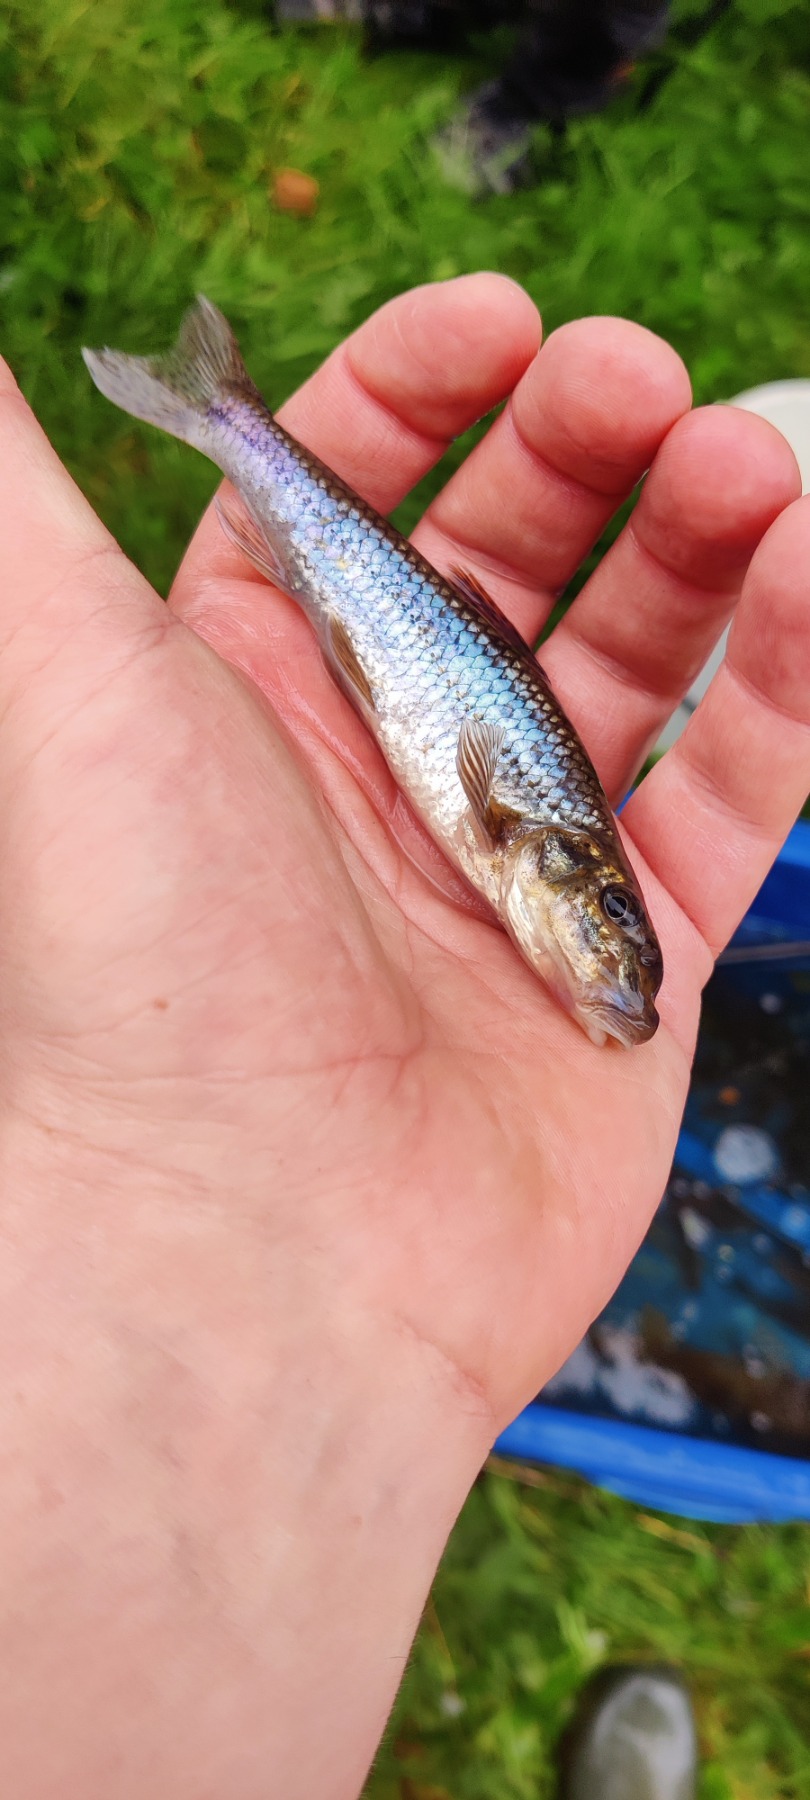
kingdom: Animalia
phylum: Chordata
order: Cypriniformes
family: Cyprinidae
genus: Gobio
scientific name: Gobio gobio
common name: Grundling
